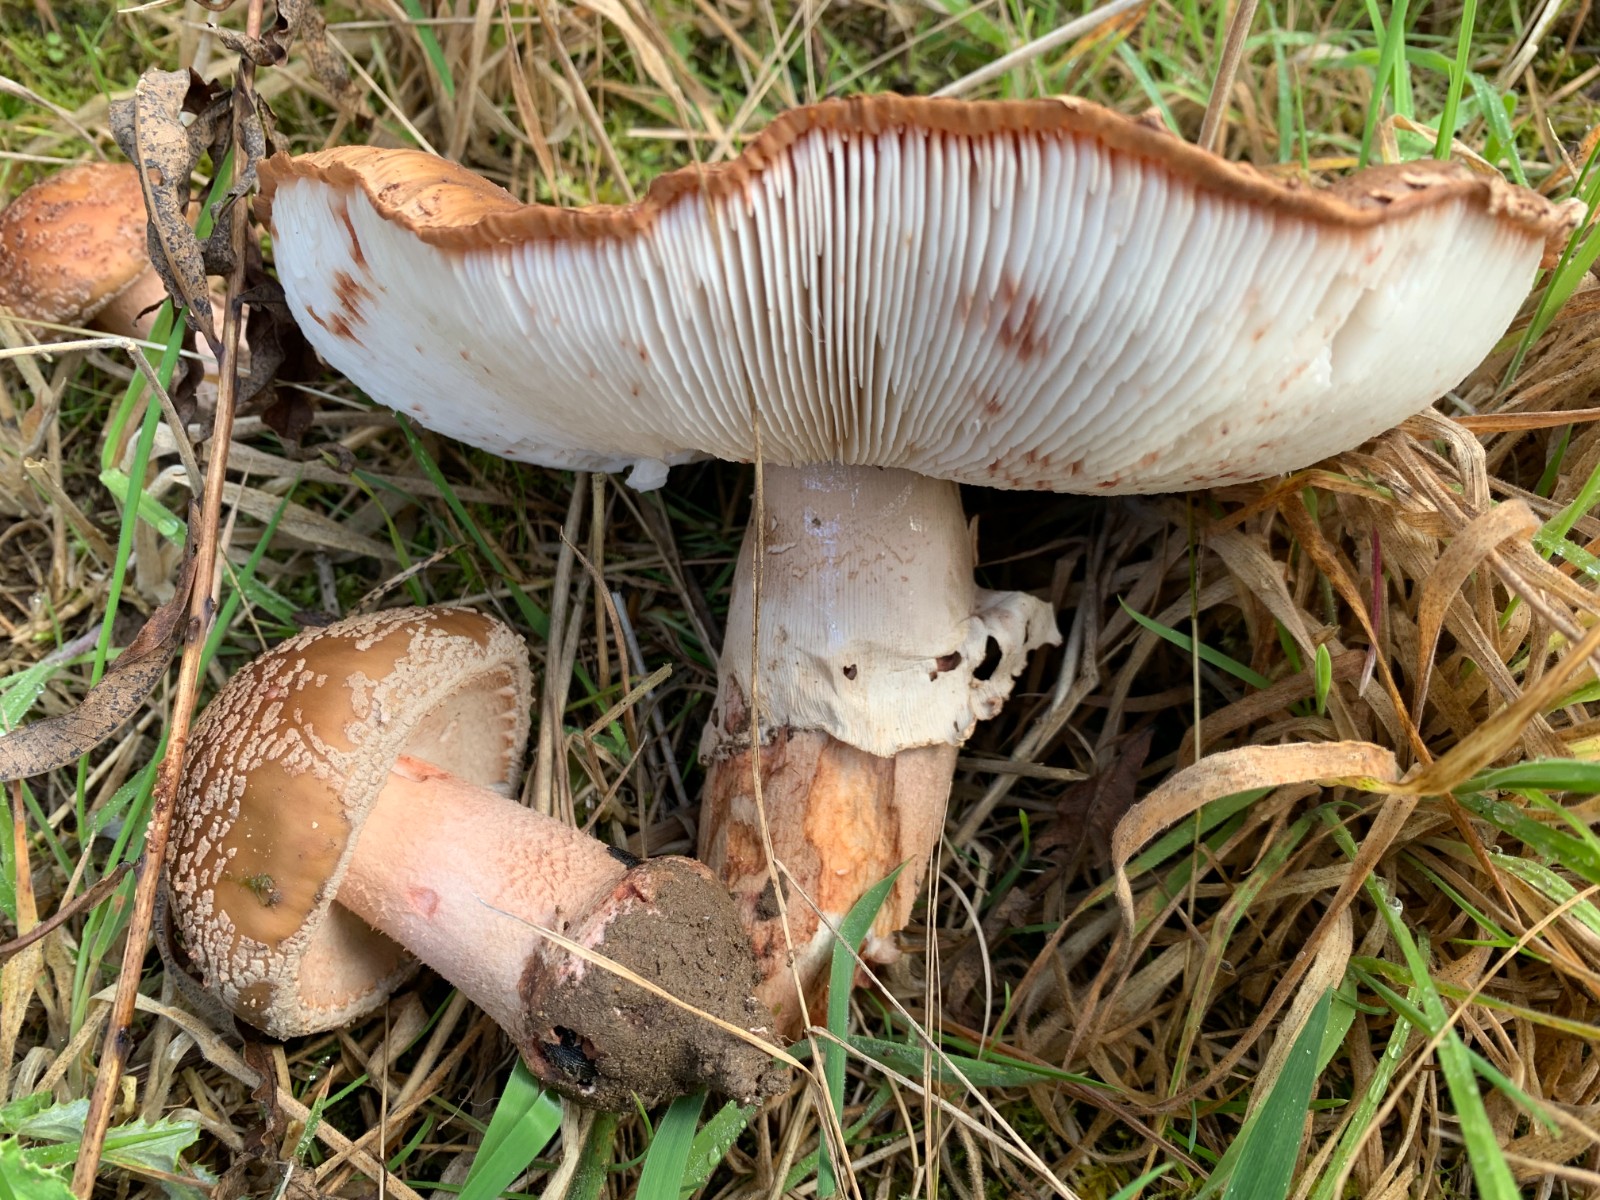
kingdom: Fungi
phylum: Basidiomycota
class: Agaricomycetes
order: Agaricales
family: Amanitaceae
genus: Amanita
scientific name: Amanita rubescens
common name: rødmende fluesvamp
